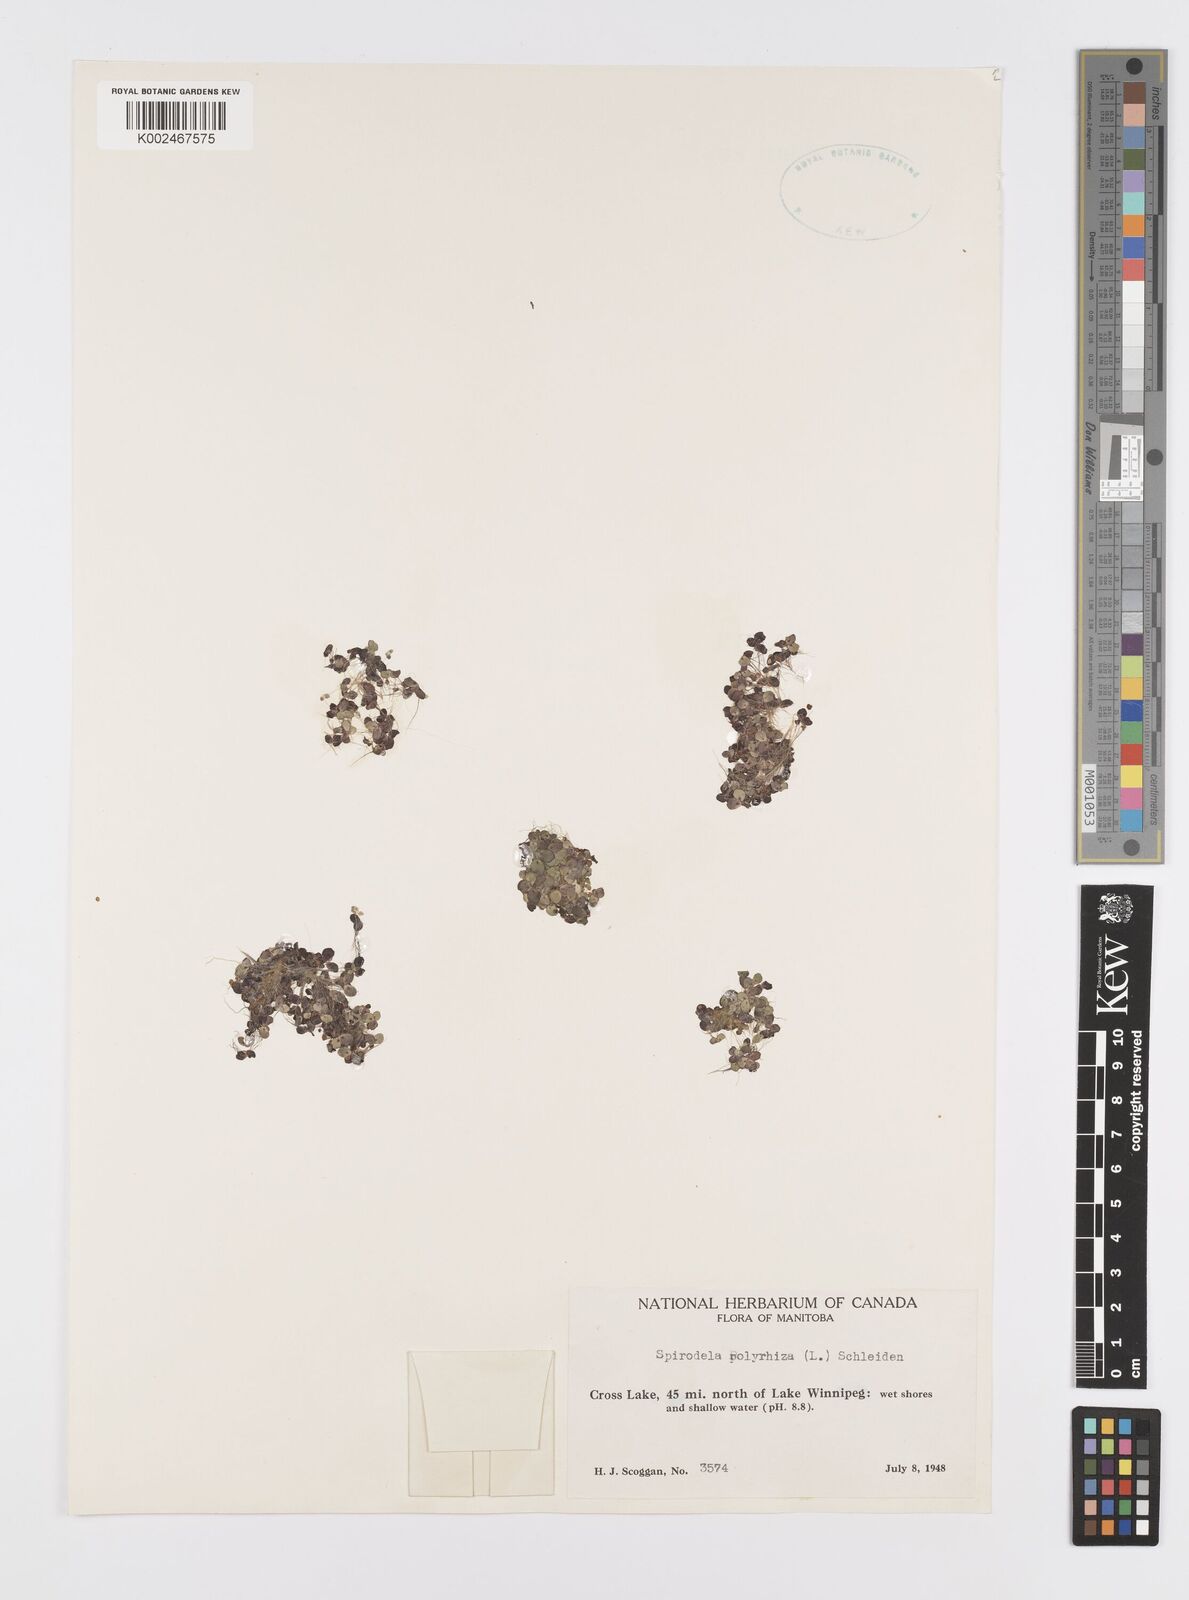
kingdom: Plantae
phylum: Tracheophyta
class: Liliopsida
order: Alismatales
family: Araceae
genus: Spirodela
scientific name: Spirodela polyrhiza
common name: Great duckweed
